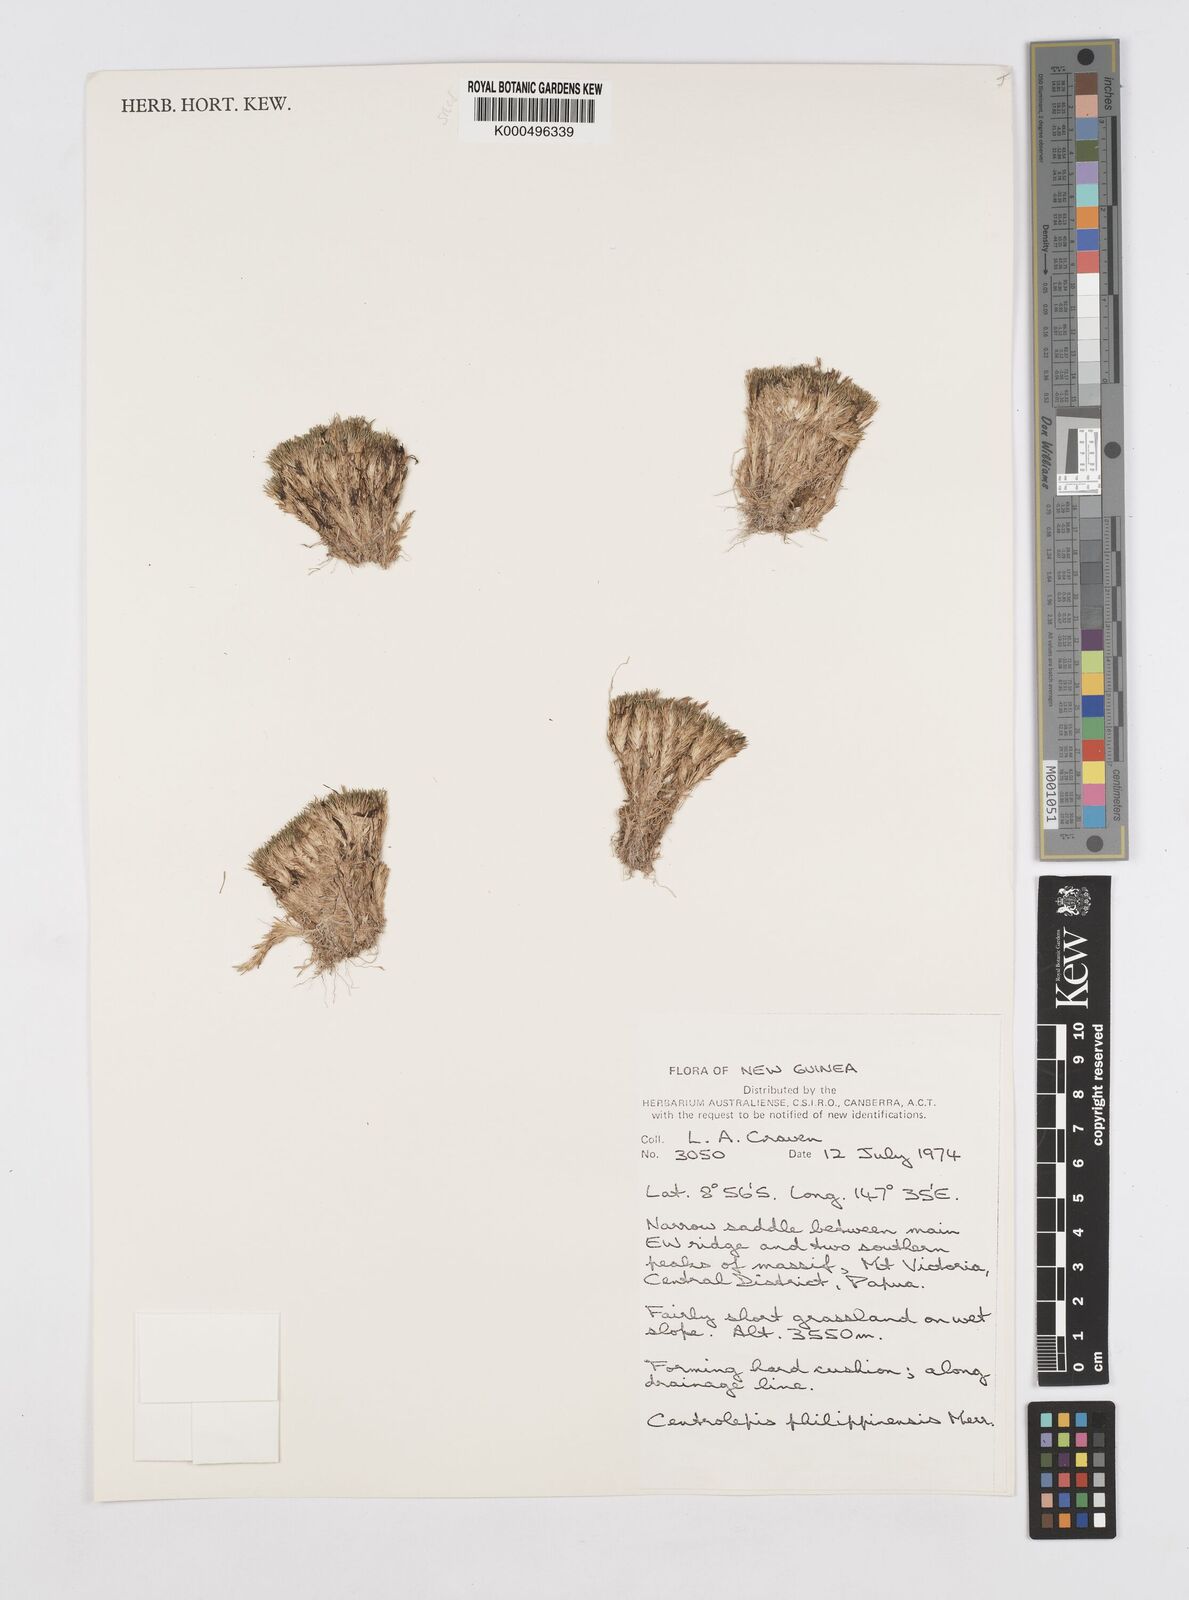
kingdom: Plantae
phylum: Tracheophyta
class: Liliopsida
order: Poales
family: Restionaceae
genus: Centrolepis
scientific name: Centrolepis philippinensis
